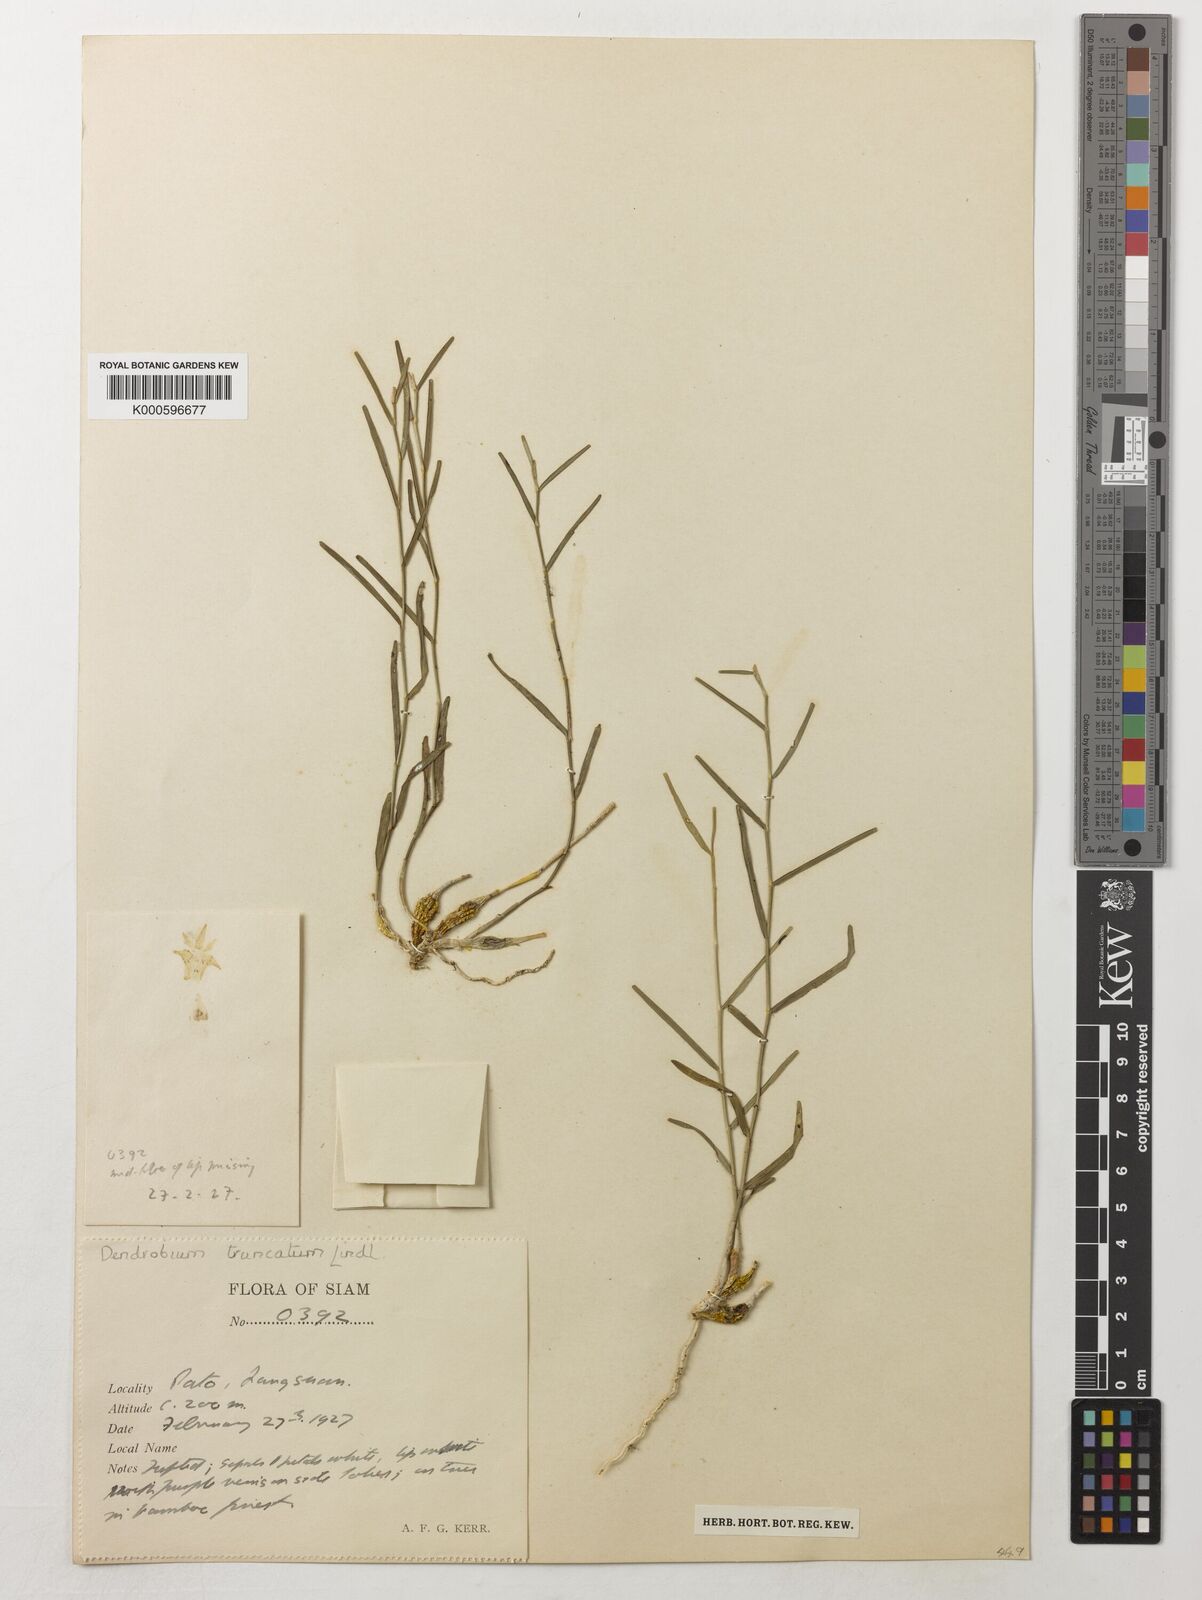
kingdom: Plantae
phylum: Tracheophyta
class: Liliopsida
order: Asparagales
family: Orchidaceae
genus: Dendrobium
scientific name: Dendrobium truncatum
